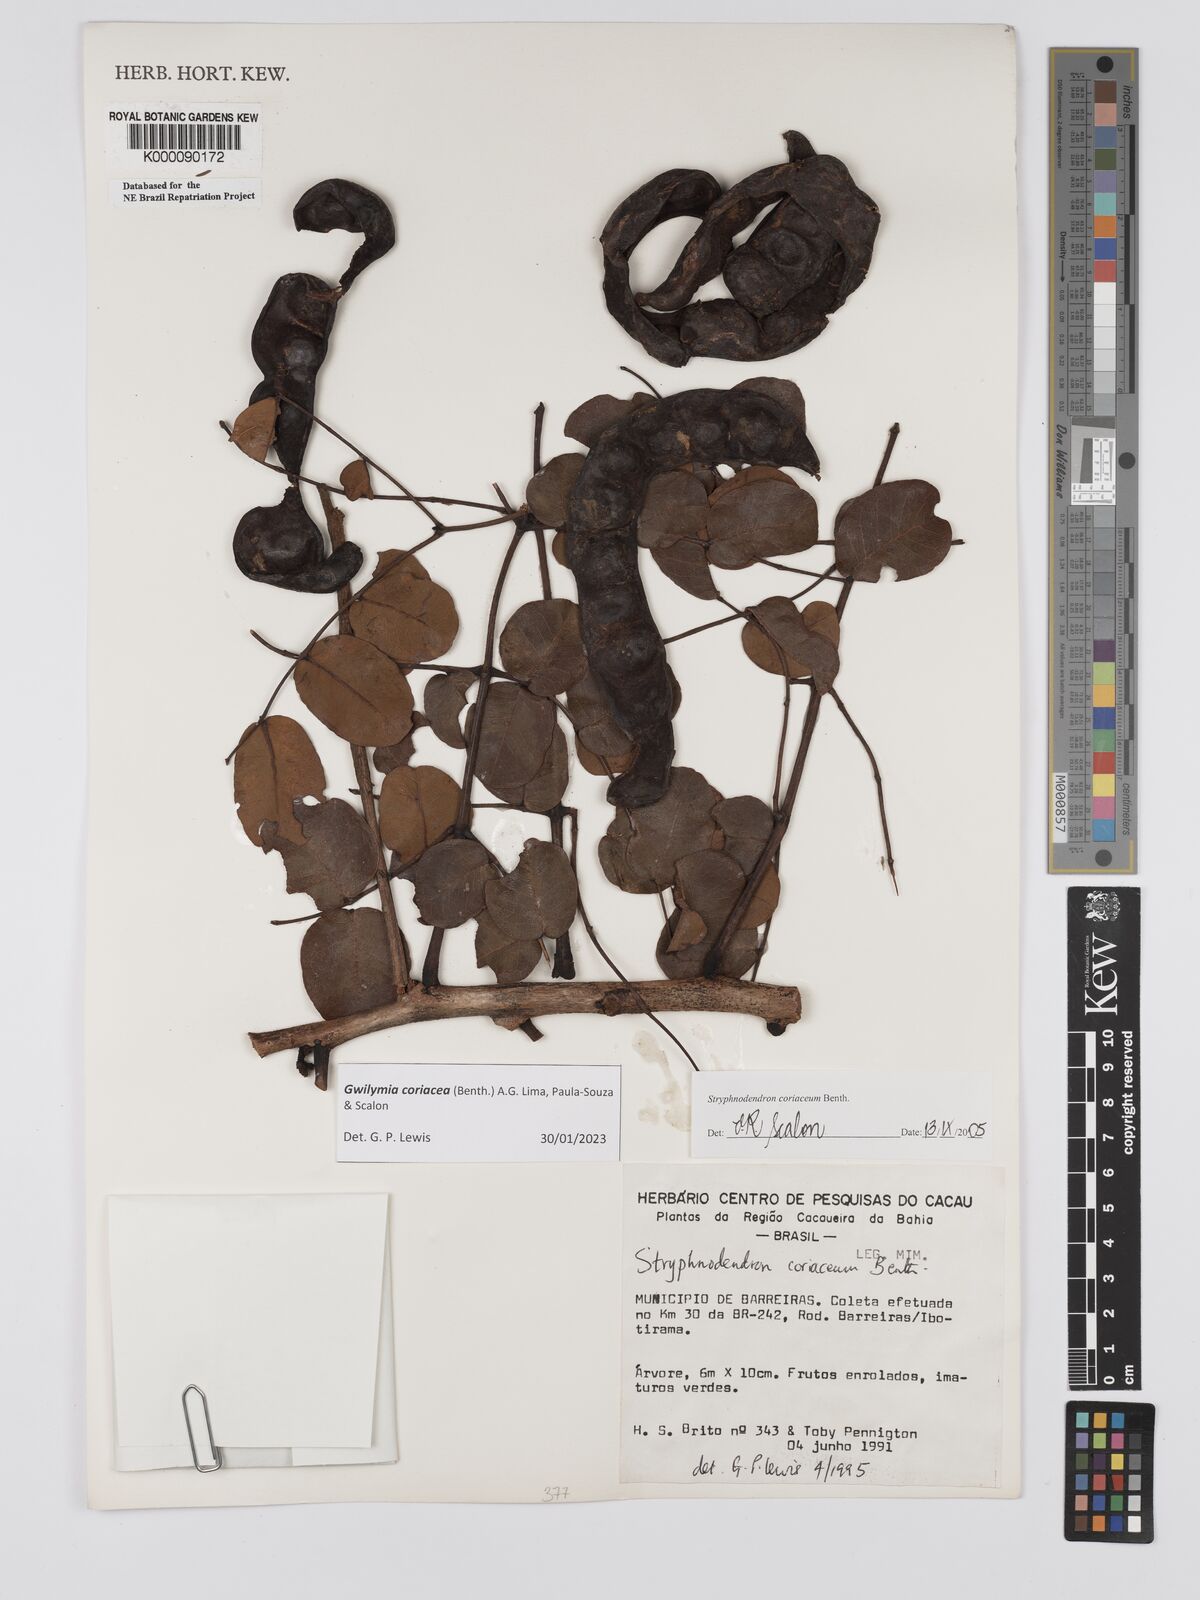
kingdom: Plantae
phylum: Tracheophyta
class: Magnoliopsida
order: Fabales
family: Fabaceae
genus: Stryphnodendron
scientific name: Stryphnodendron coriaceum
